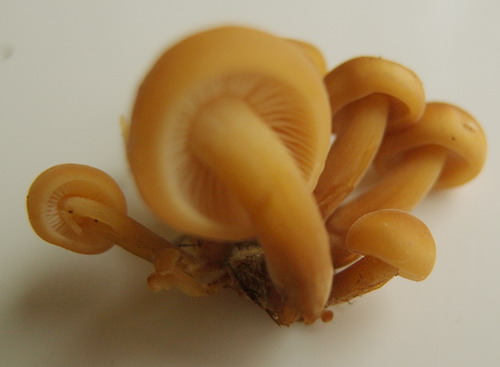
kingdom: Fungi
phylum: Basidiomycota
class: Agaricomycetes
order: Agaricales
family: Physalacriaceae
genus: Flammulina
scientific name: Flammulina velutipes
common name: gul fløjlsfod
